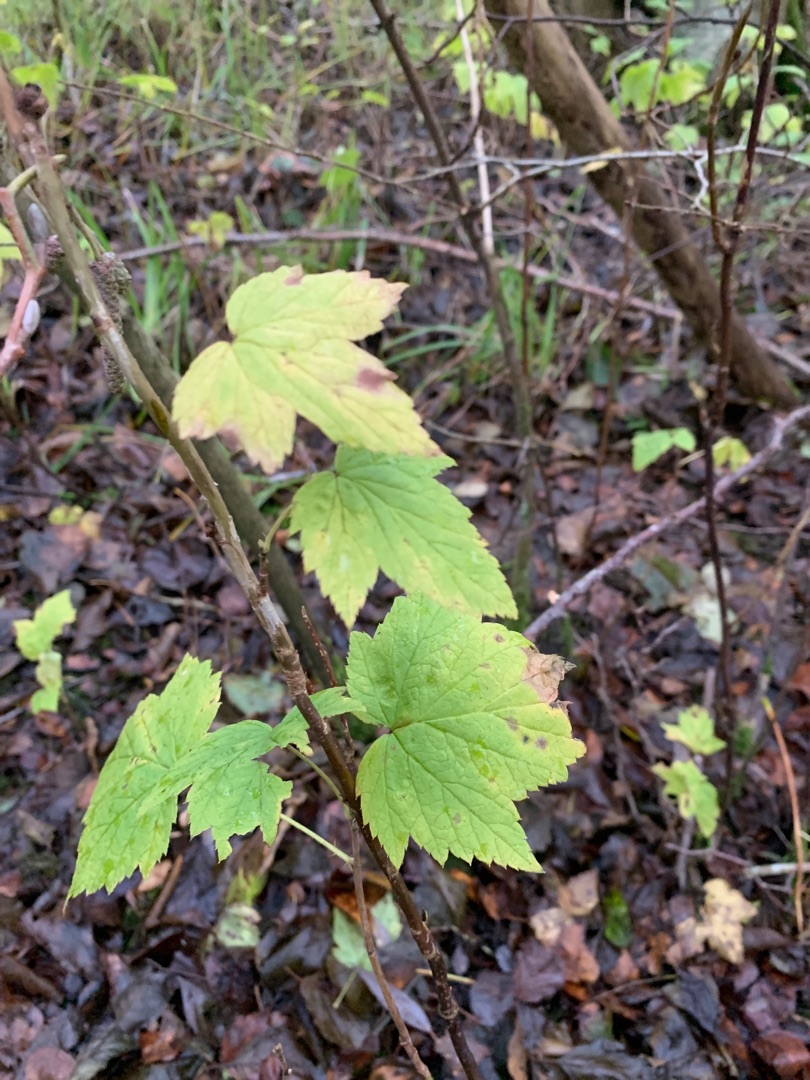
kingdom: Plantae
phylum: Tracheophyta
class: Magnoliopsida
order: Saxifragales
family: Grossulariaceae
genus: Ribes
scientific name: Ribes nigrum
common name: Solbær
